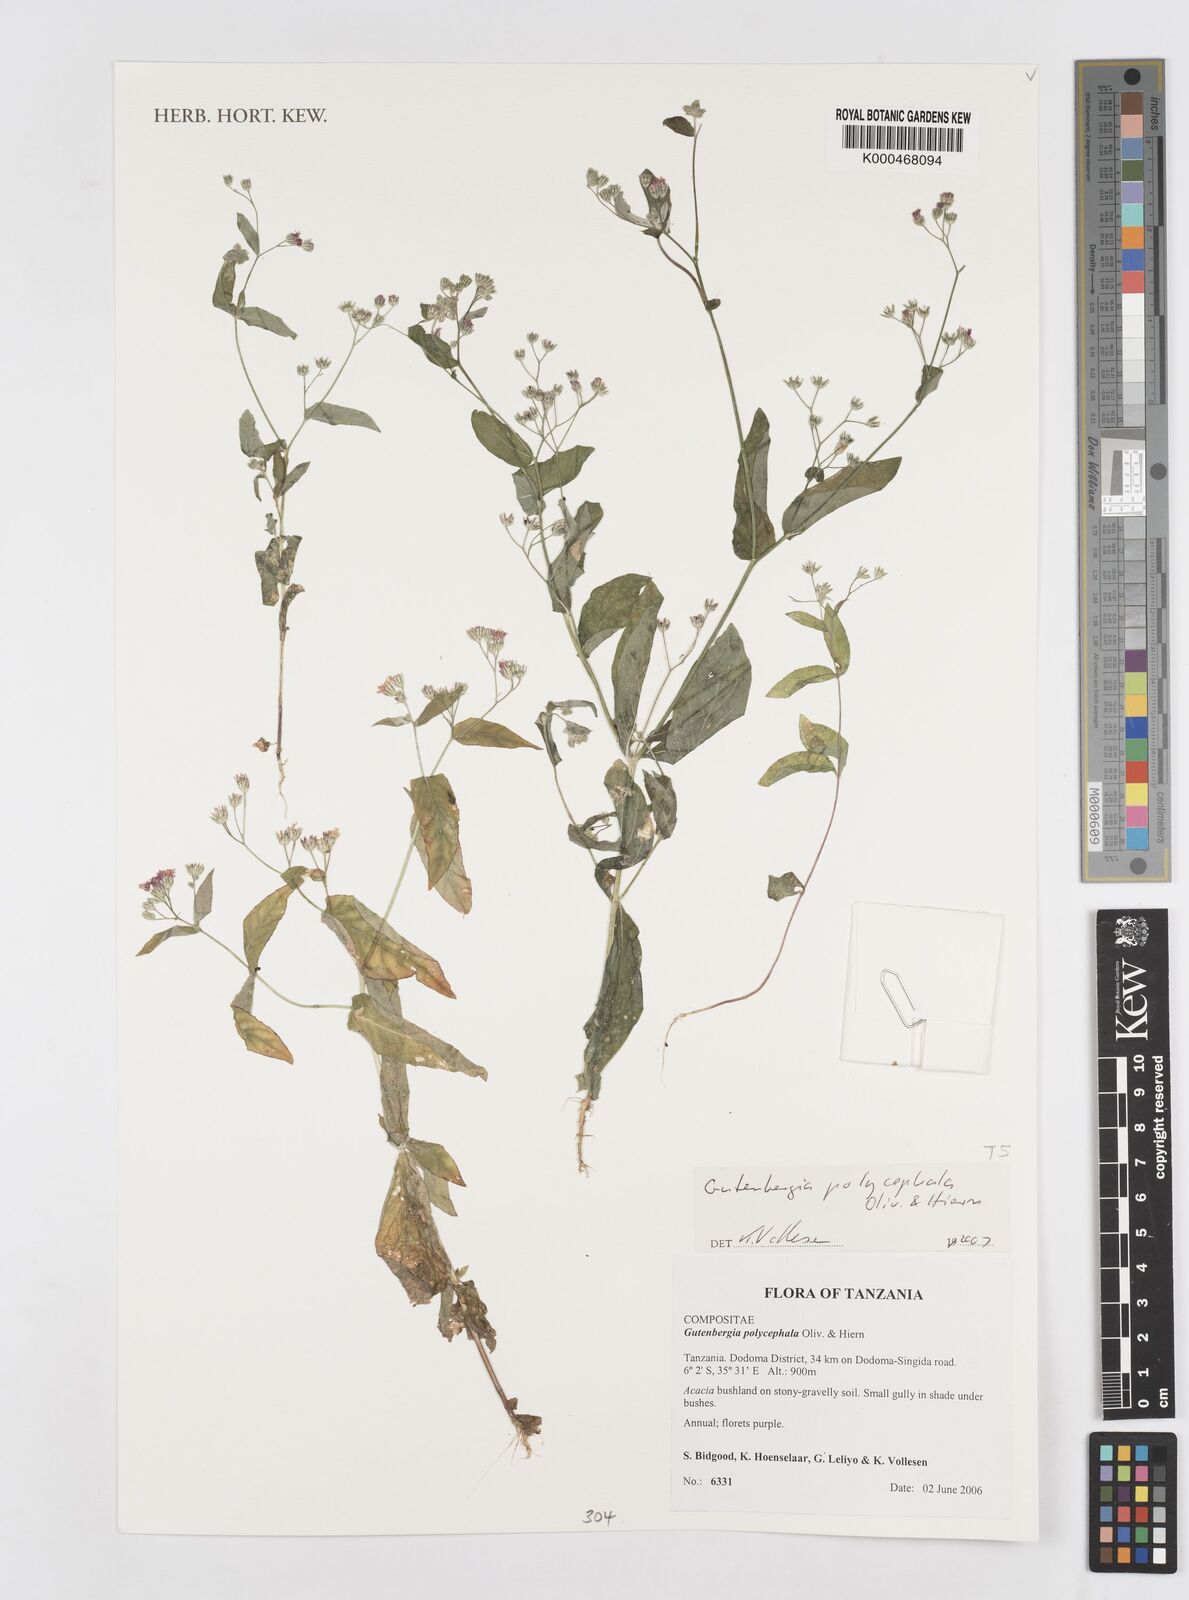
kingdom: Plantae
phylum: Tracheophyta
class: Magnoliopsida
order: Asterales
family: Asteraceae
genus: Gutenbergia
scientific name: Gutenbergia polycephala
